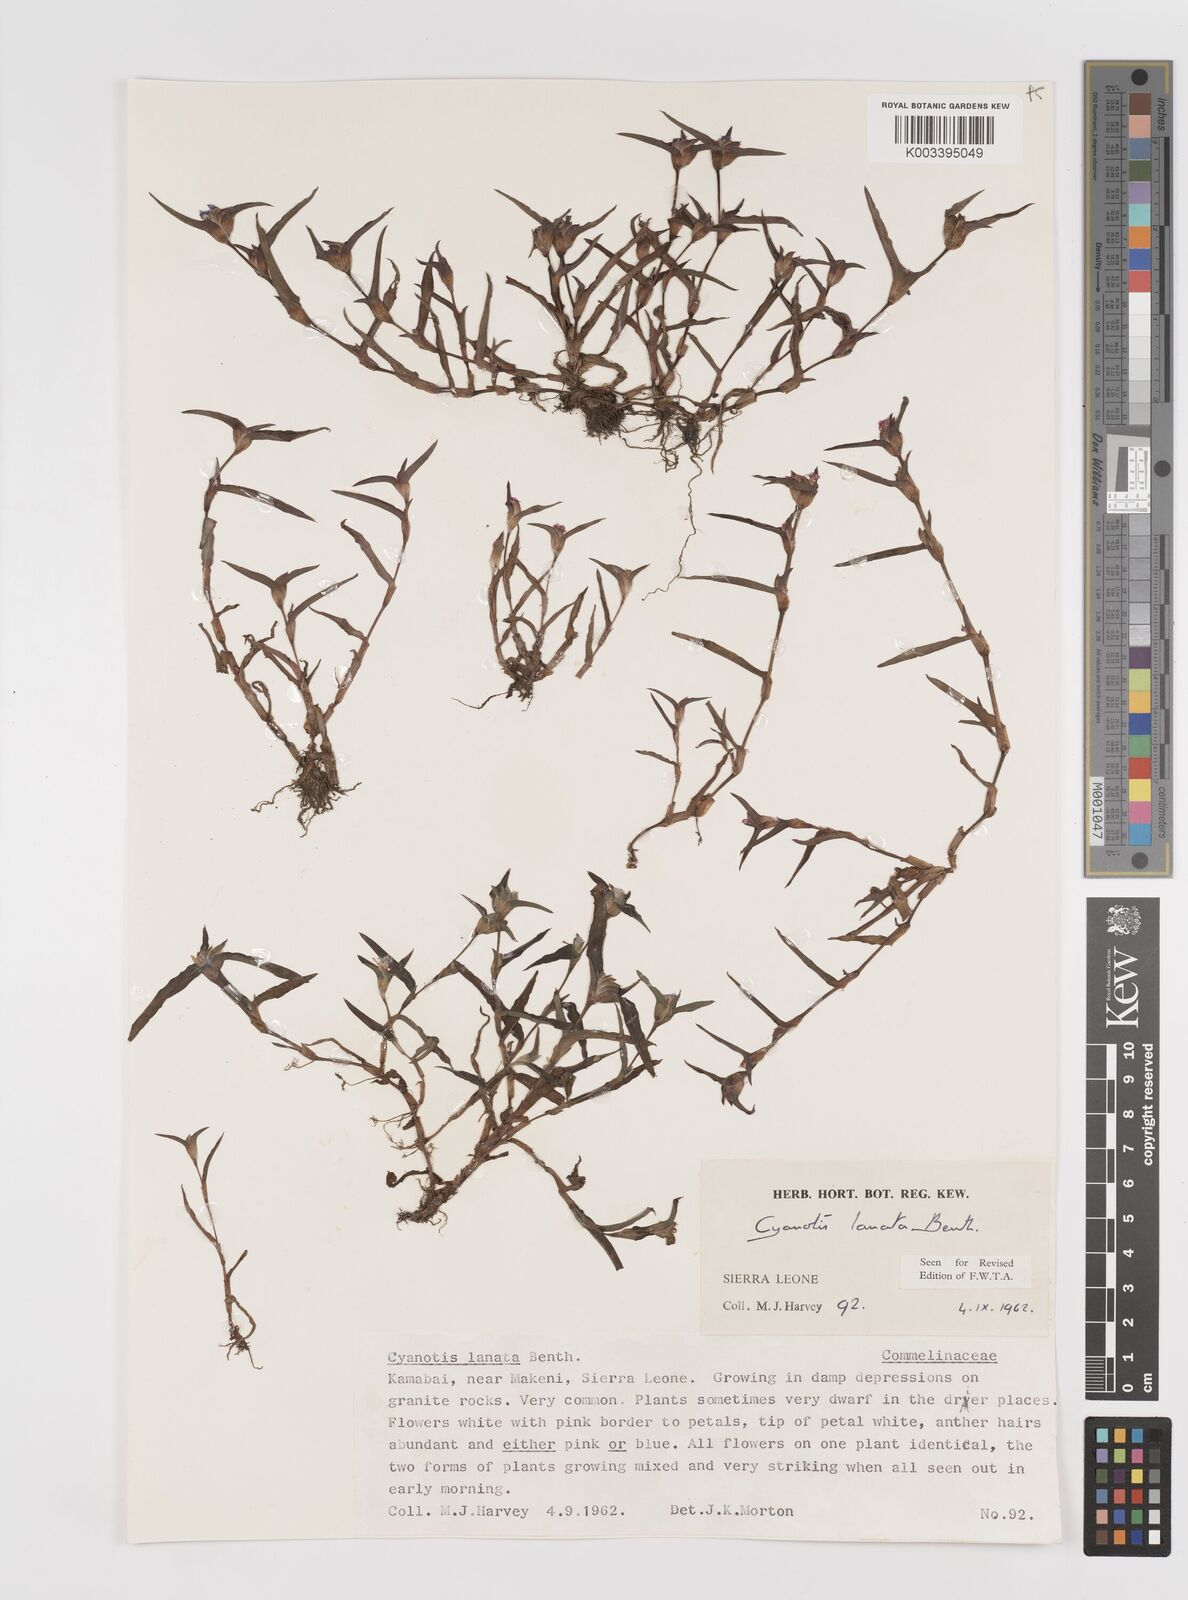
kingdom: Plantae
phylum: Tracheophyta
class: Liliopsida
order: Commelinales
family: Commelinaceae
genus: Cyanotis
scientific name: Cyanotis lanata
